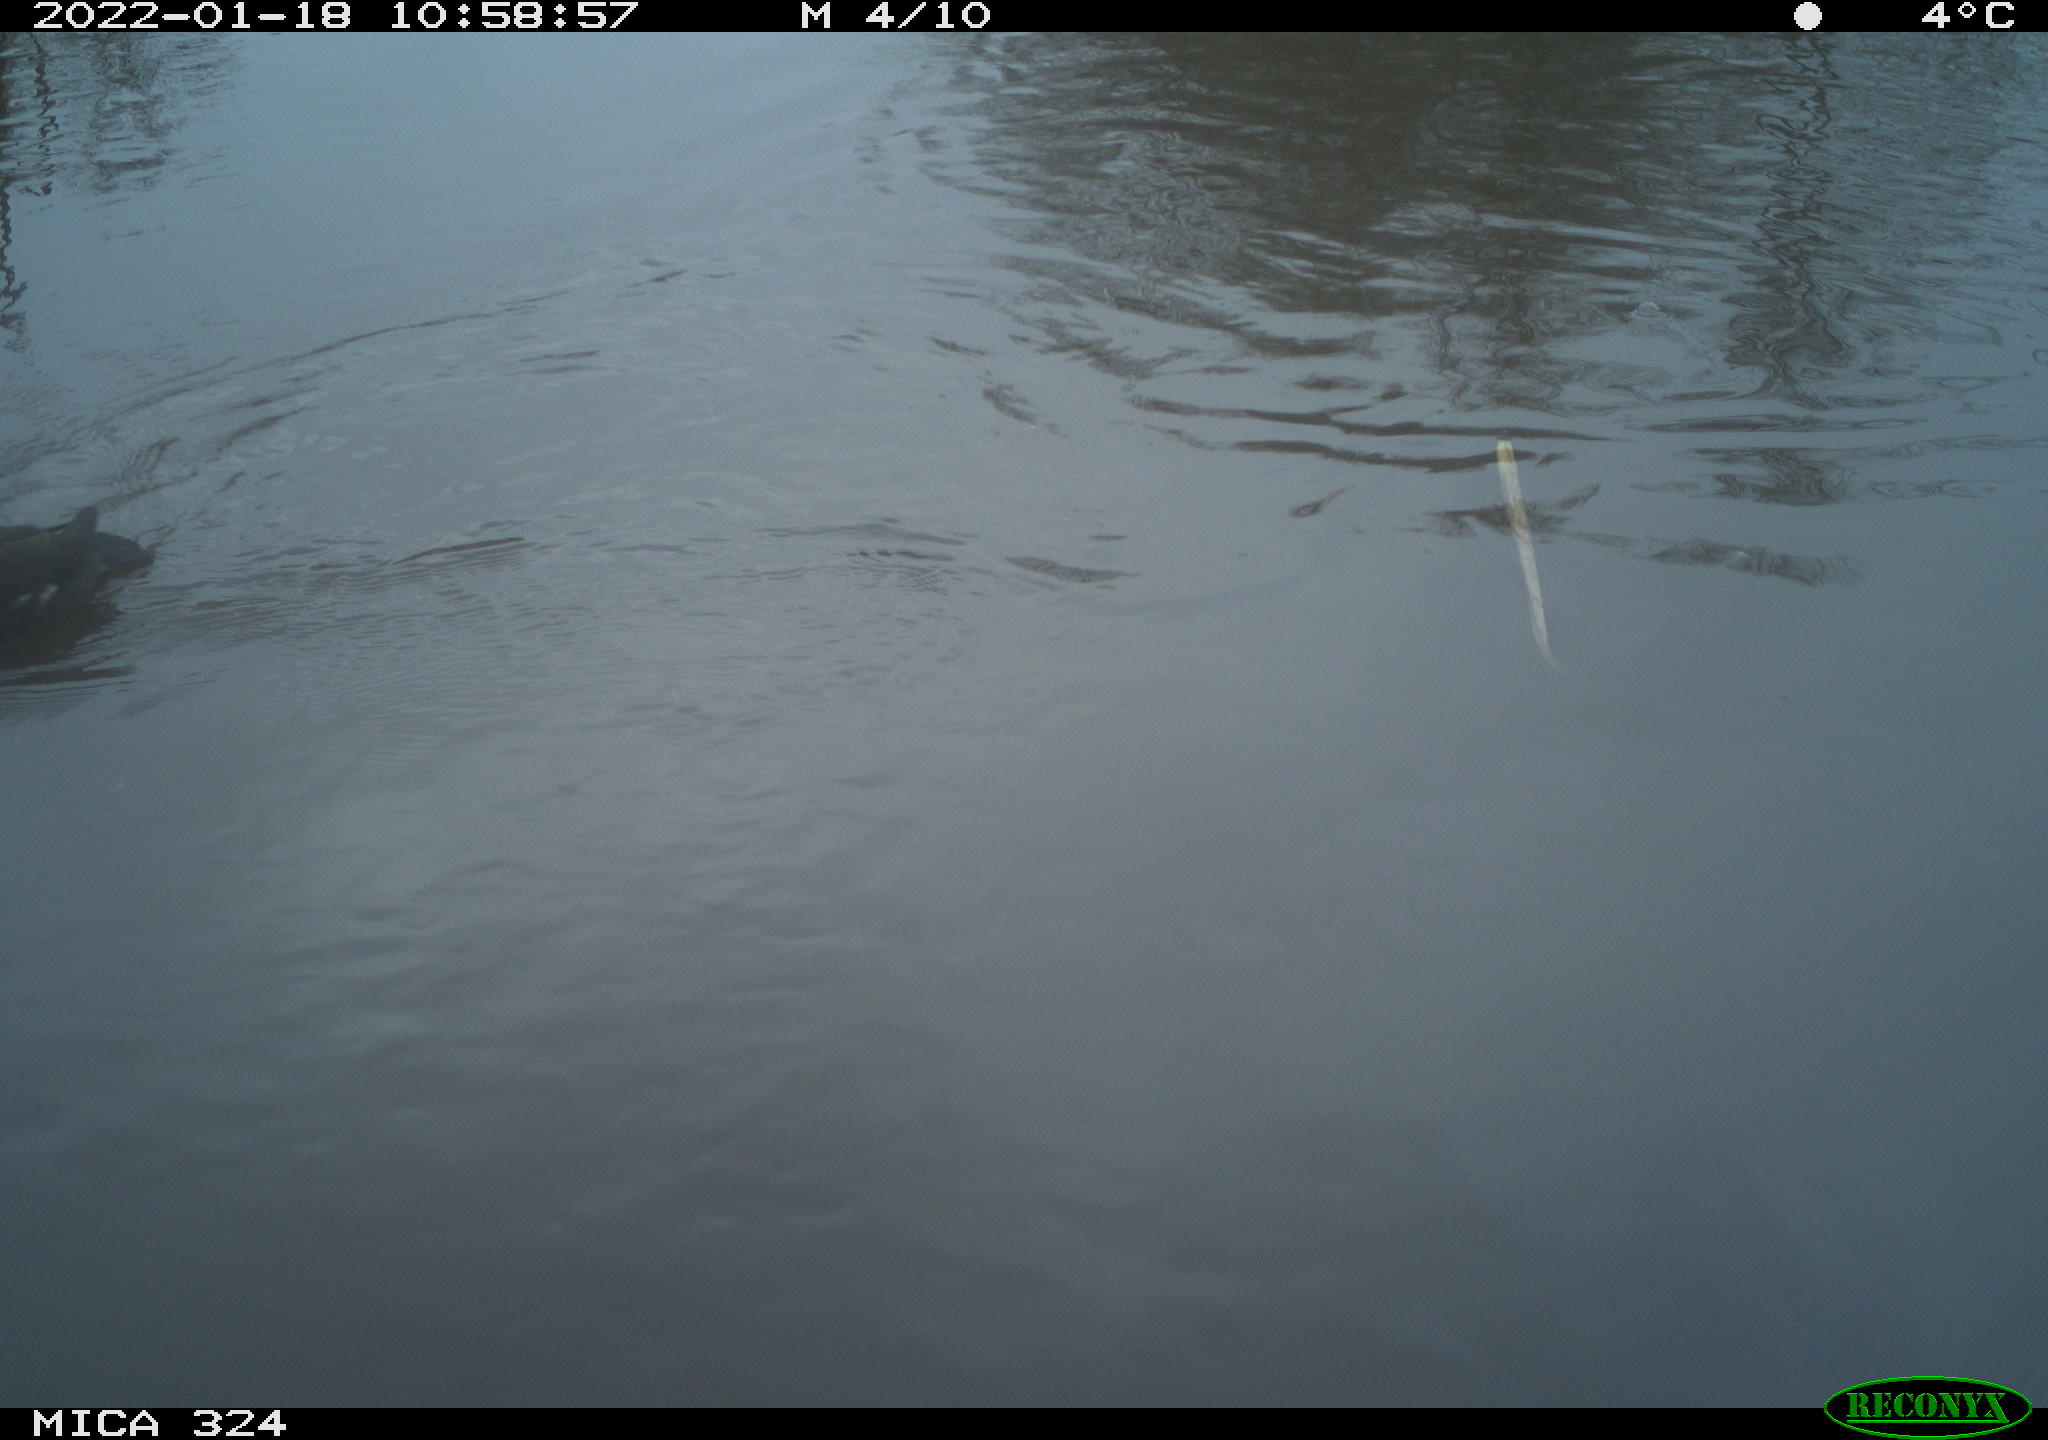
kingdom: Animalia
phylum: Chordata
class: Aves
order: Gruiformes
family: Rallidae
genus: Gallinula
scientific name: Gallinula chloropus
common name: Common moorhen
